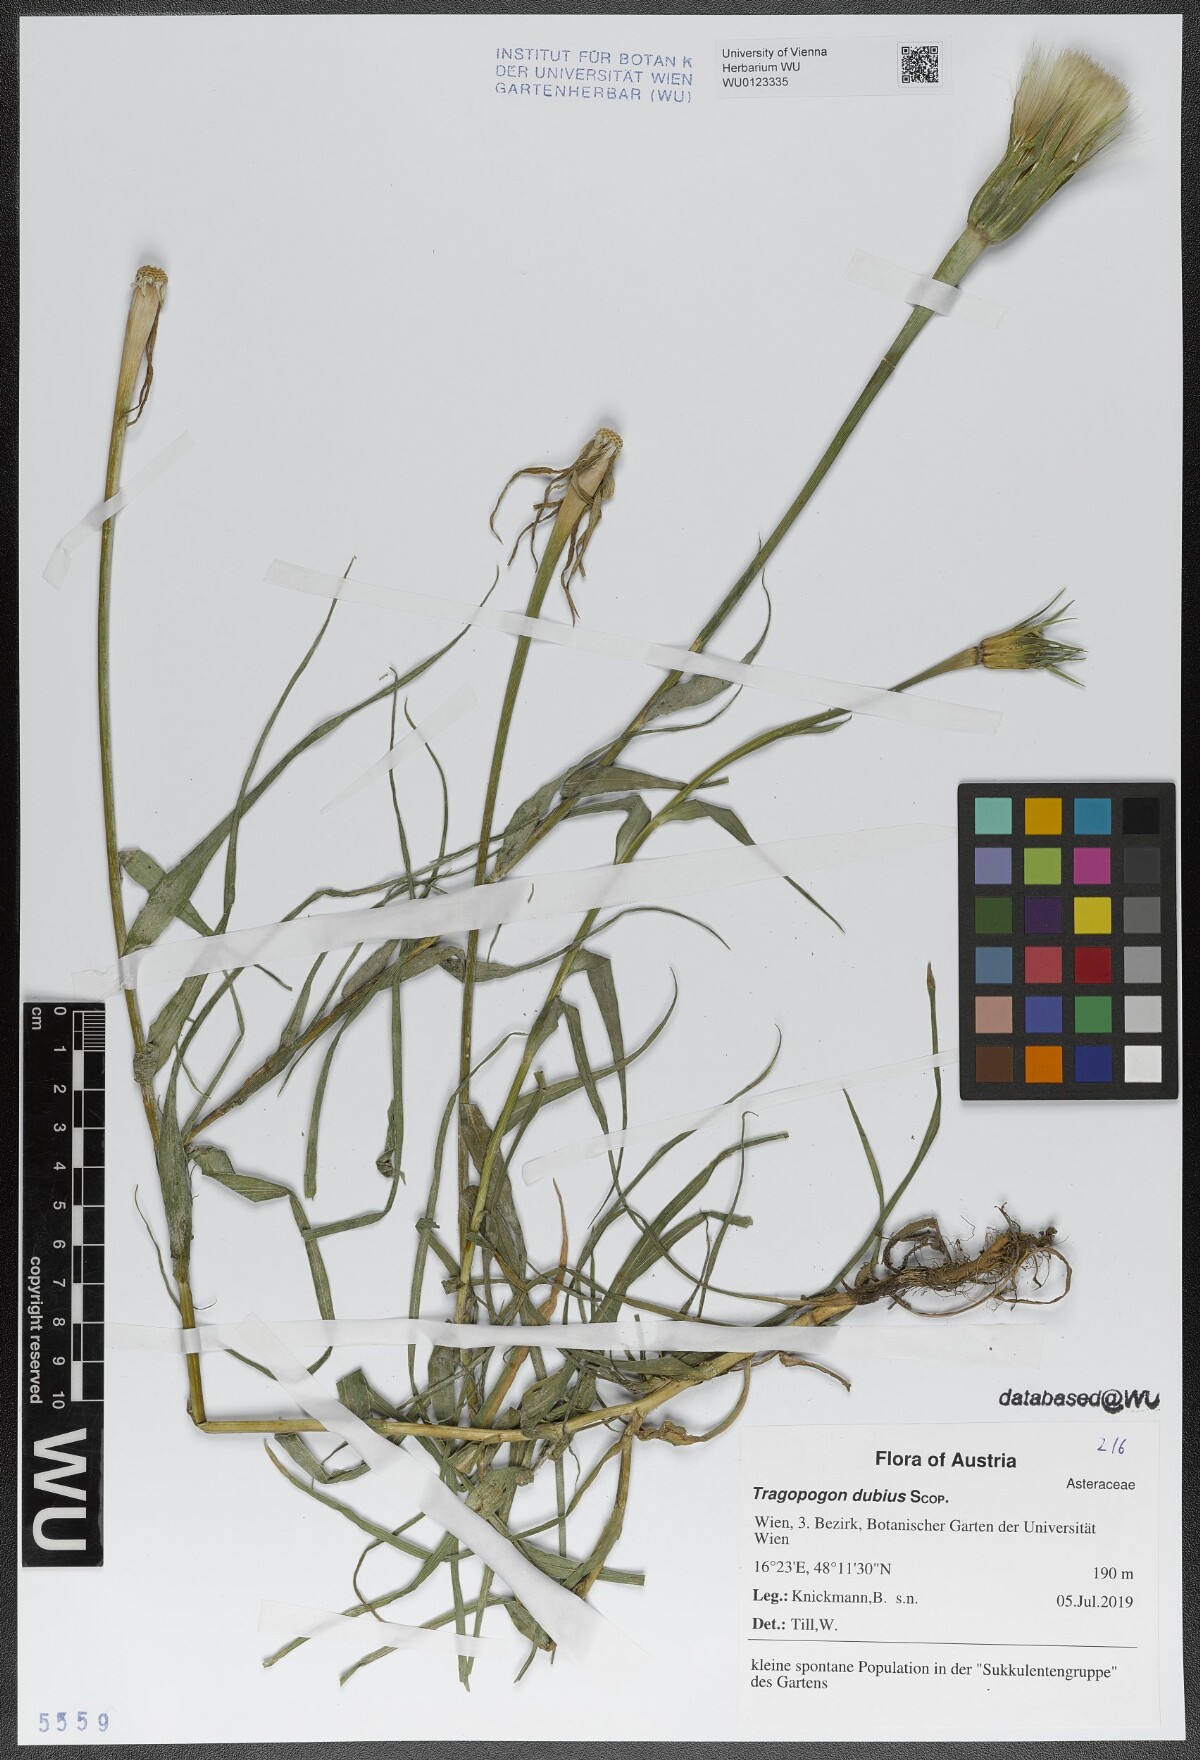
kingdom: Plantae
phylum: Tracheophyta
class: Magnoliopsida
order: Asterales
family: Asteraceae
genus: Tragopogon
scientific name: Tragopogon dubius
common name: Yellow salsify
